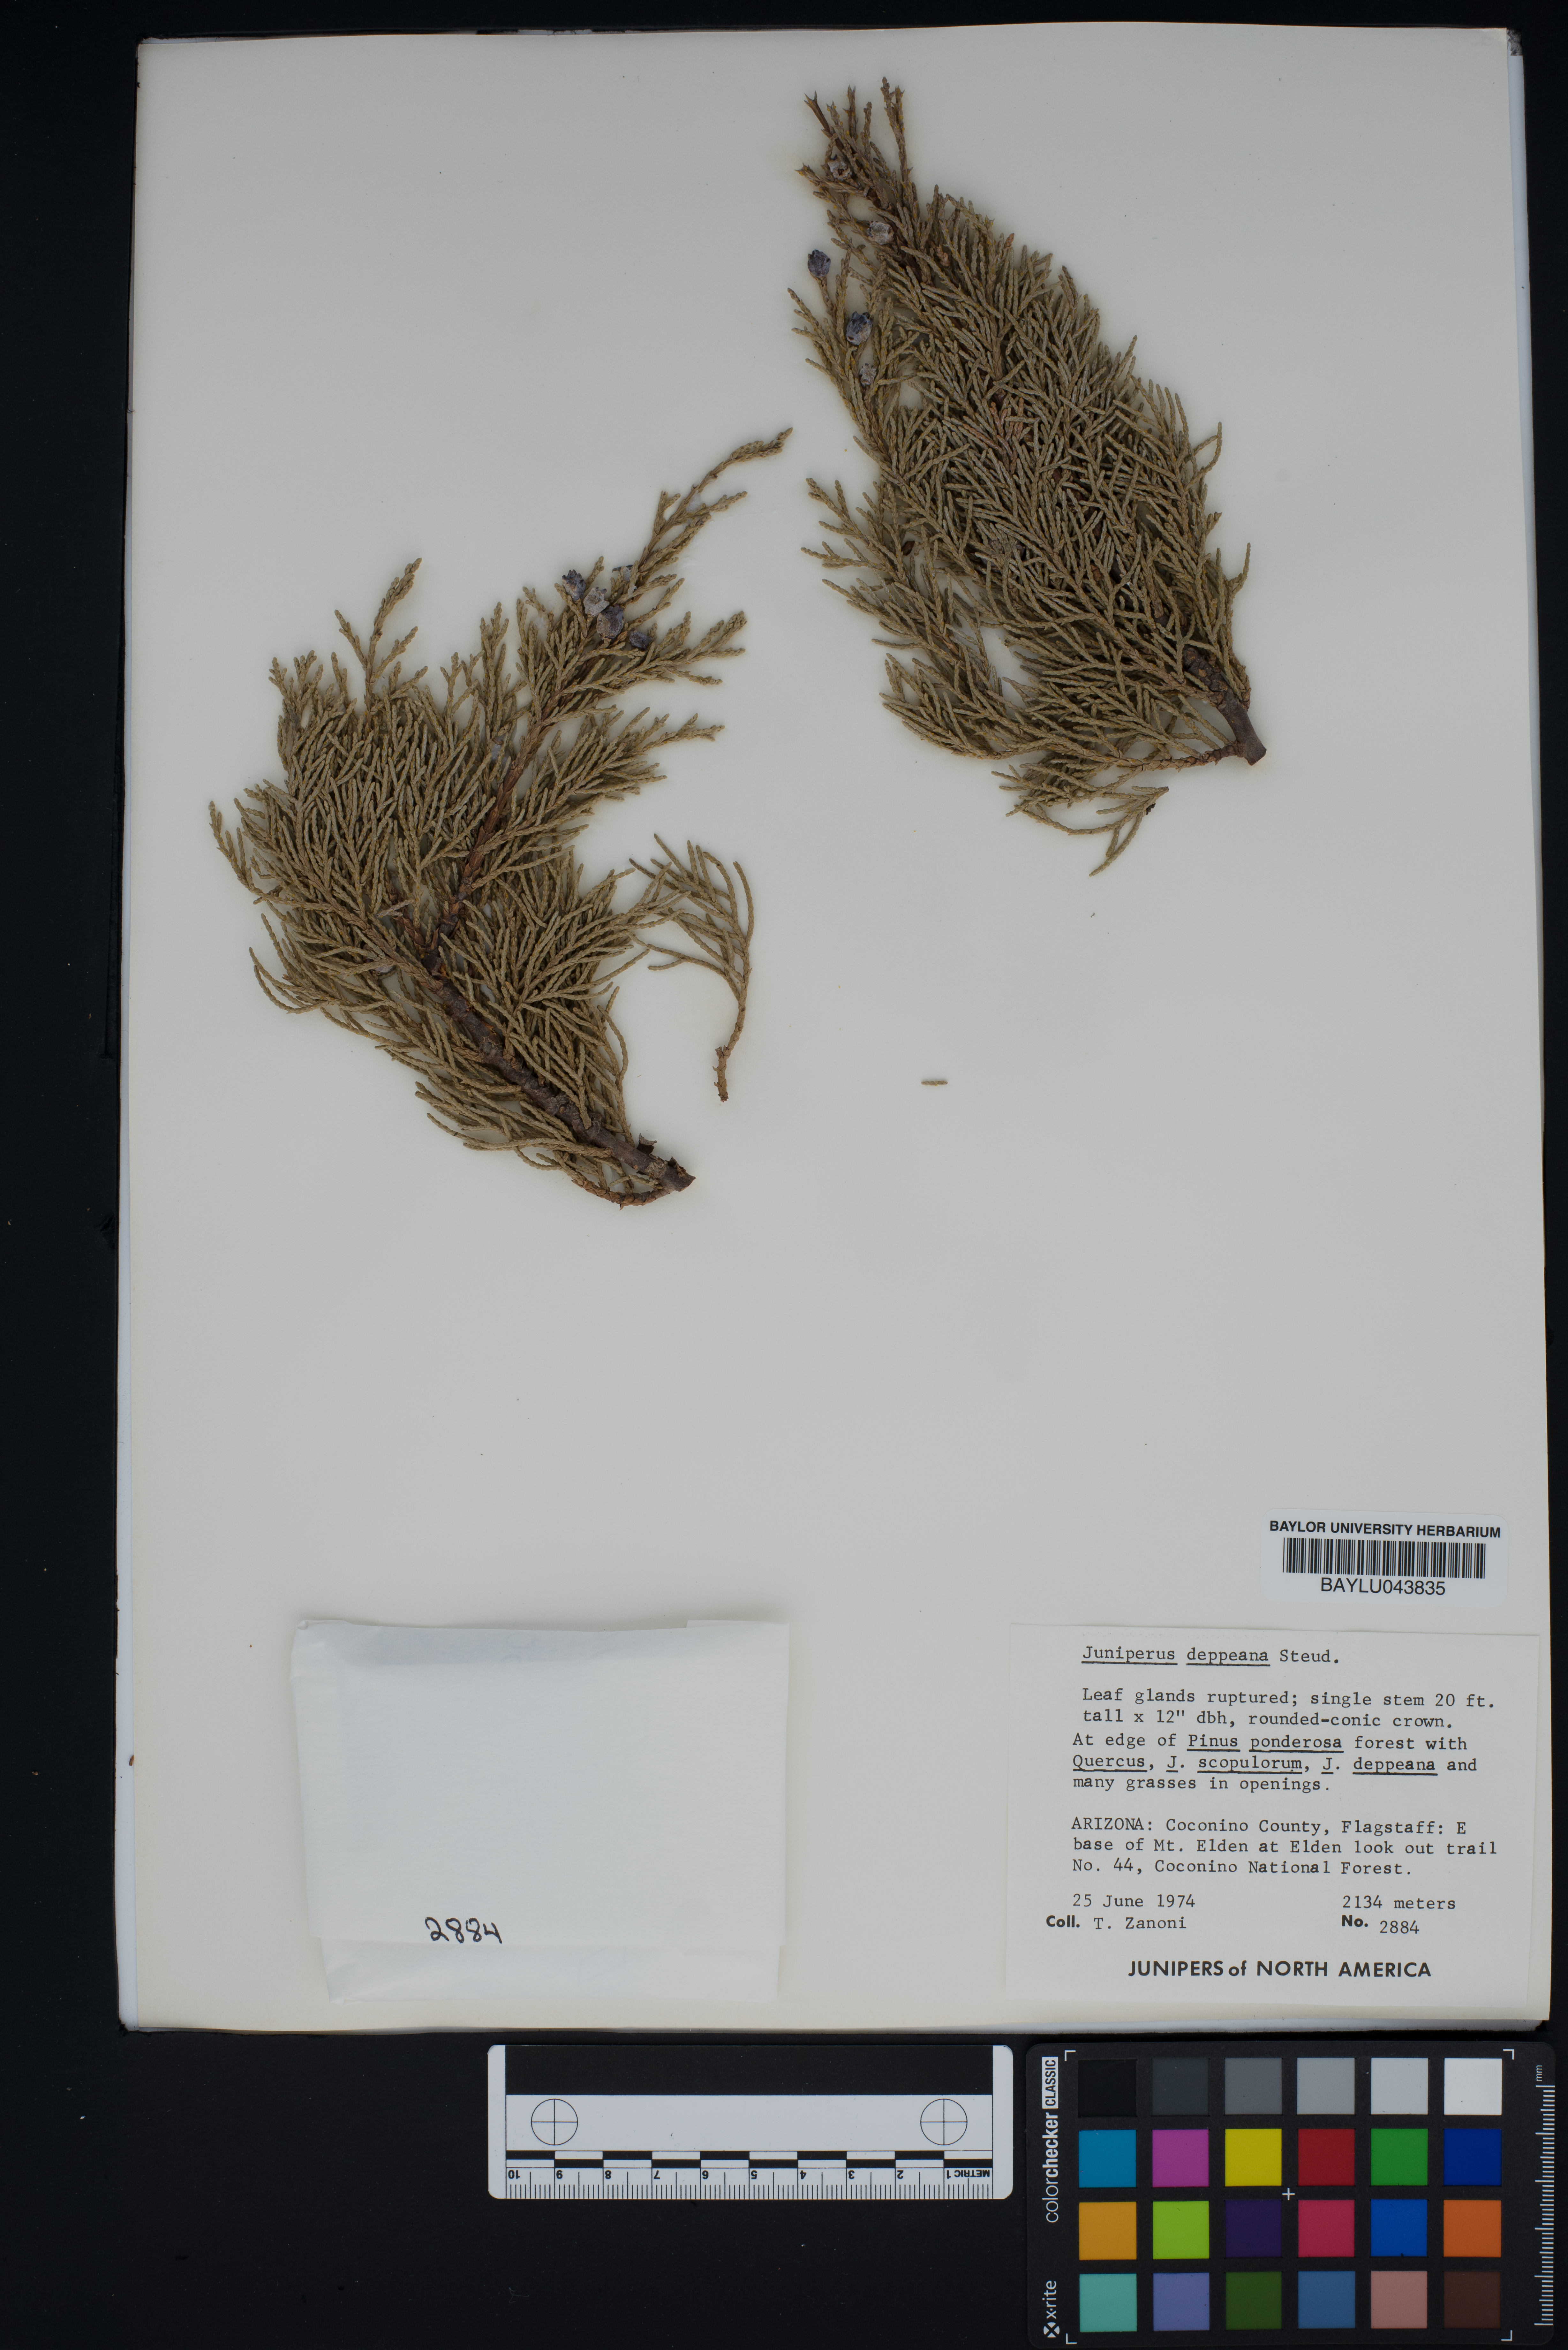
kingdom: Plantae
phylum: Tracheophyta
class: Pinopsida
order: Pinales
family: Cupressaceae
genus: Juniperus
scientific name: Juniperus deppeana
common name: Alligator juniper
